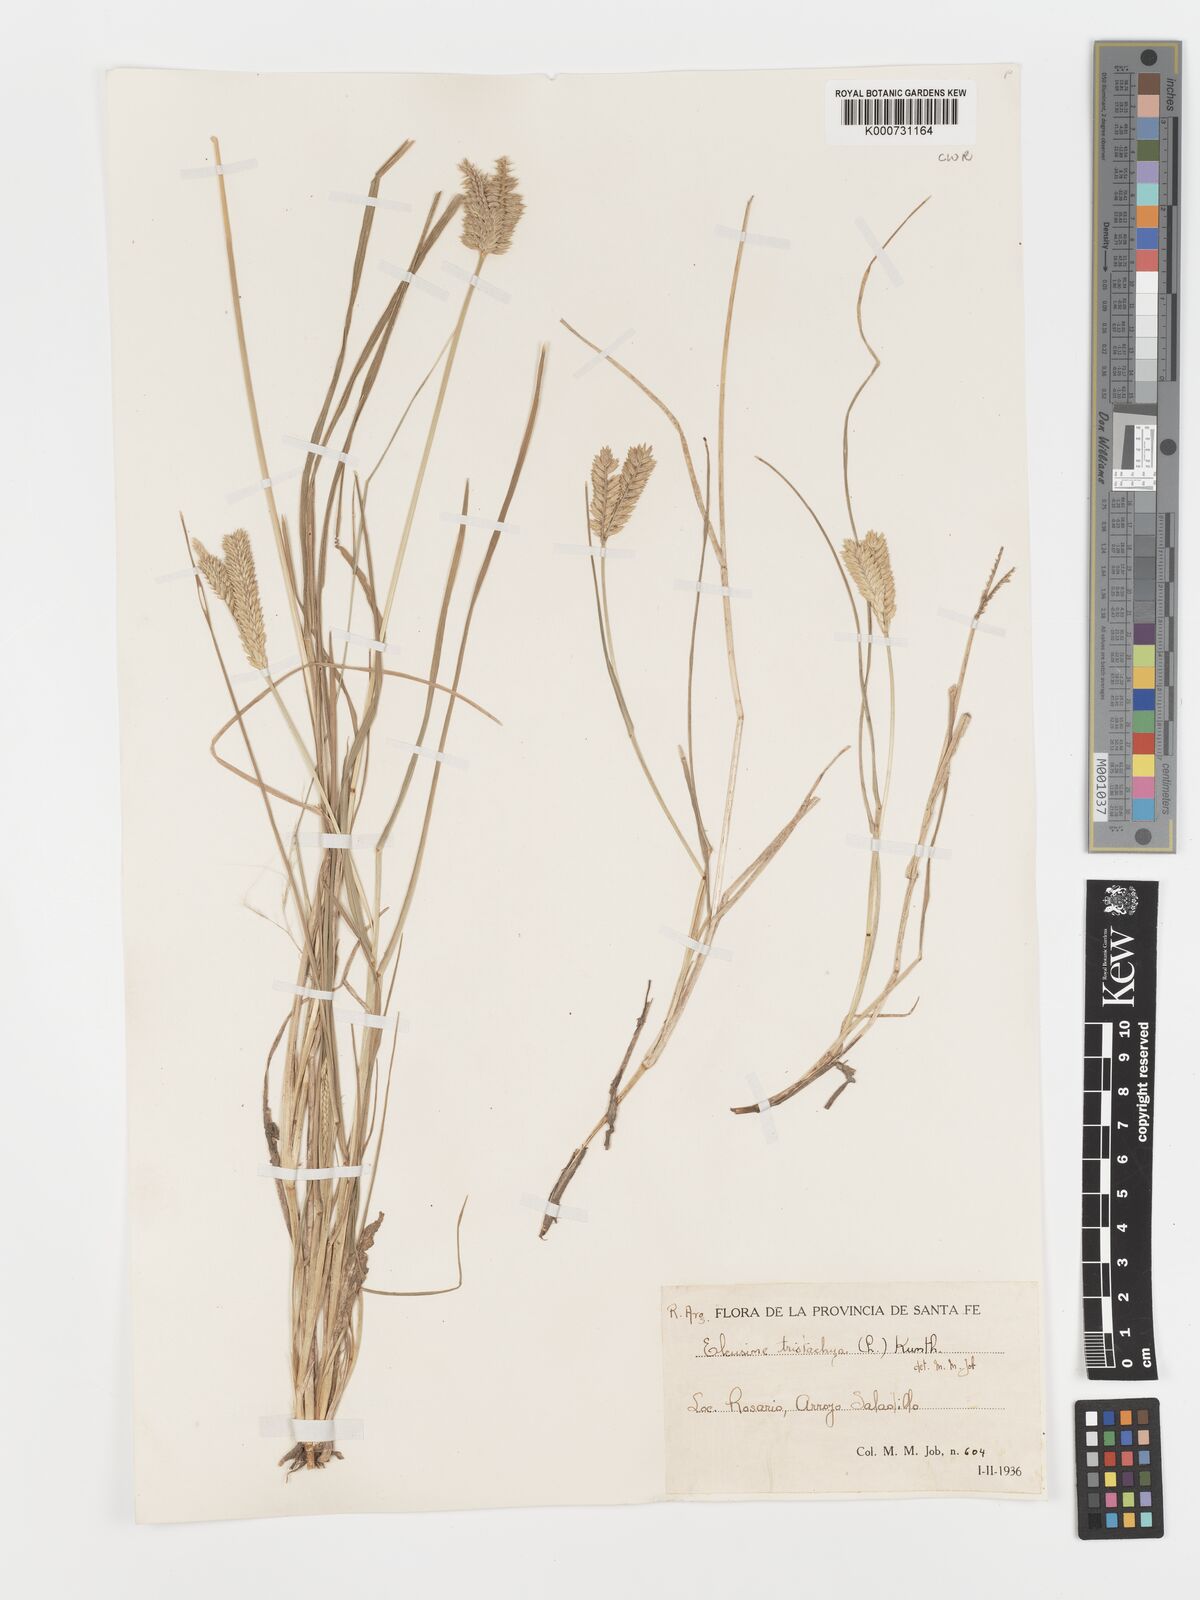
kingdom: Plantae
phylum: Tracheophyta
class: Liliopsida
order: Poales
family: Poaceae
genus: Eleusine
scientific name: Eleusine tristachya
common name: American yard-grass
